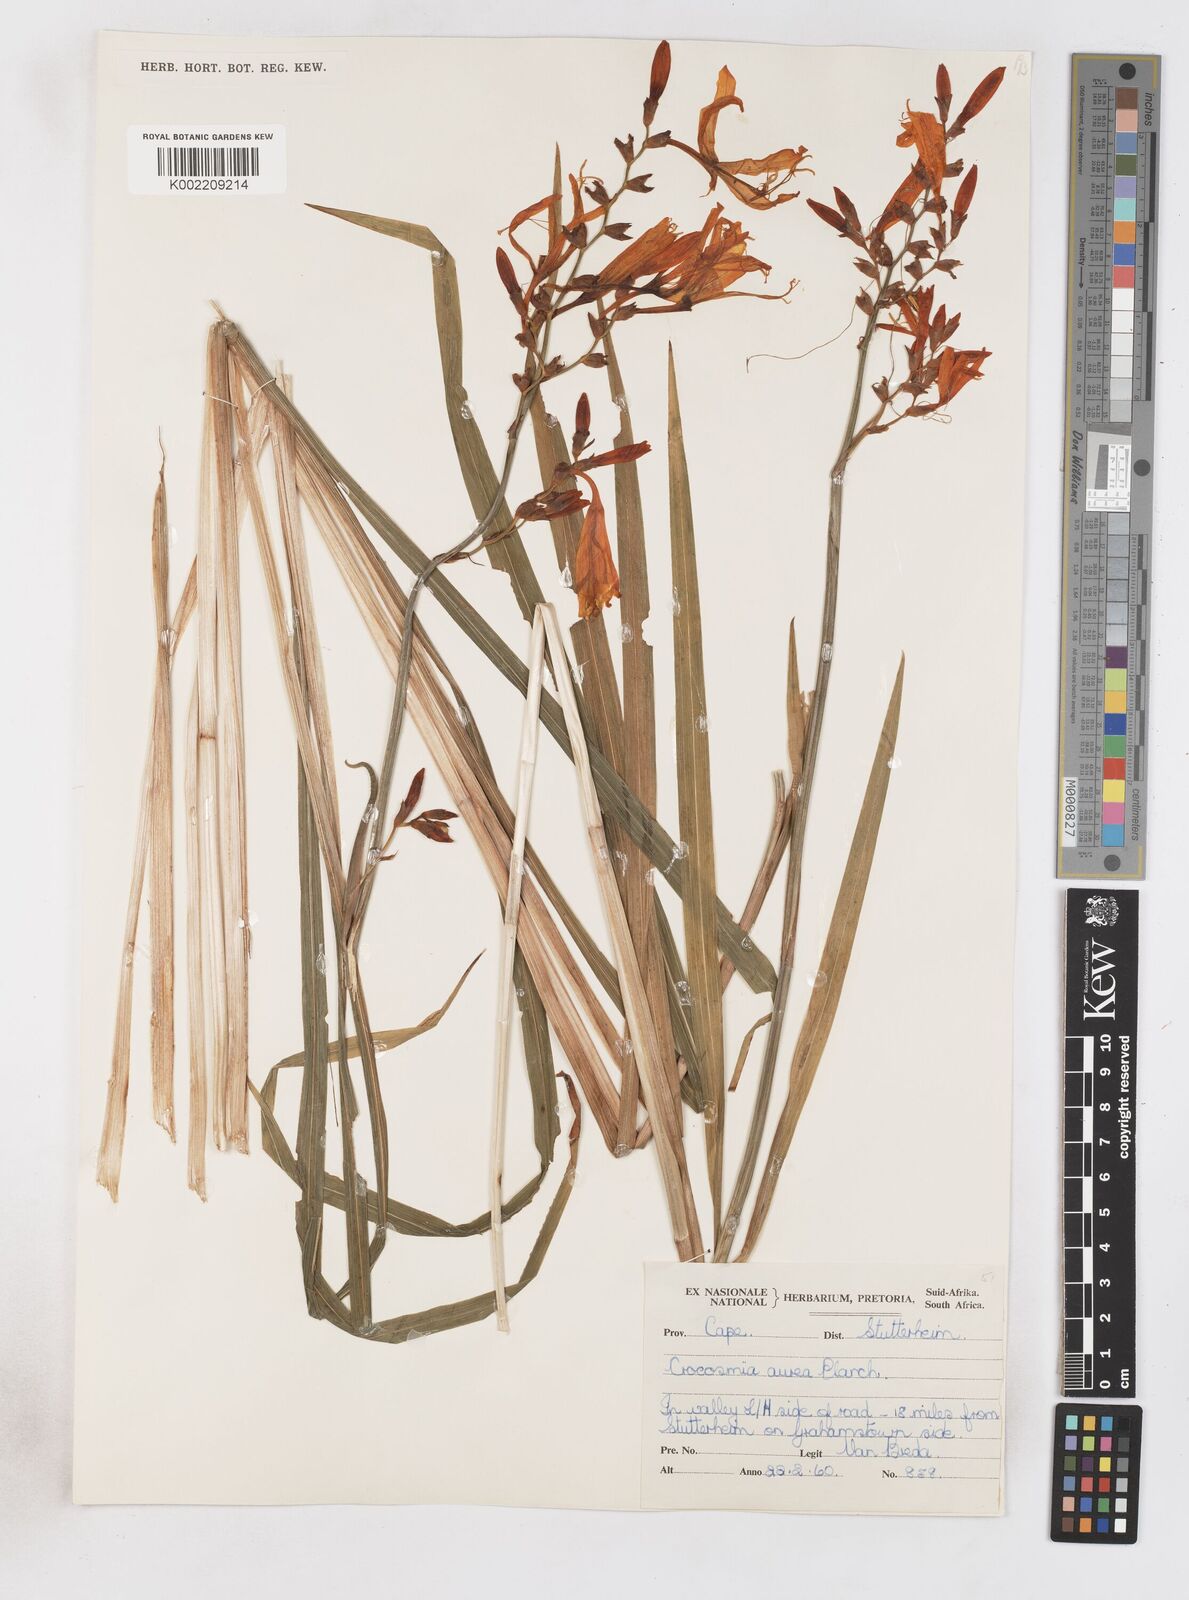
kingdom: Plantae
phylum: Tracheophyta
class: Liliopsida
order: Asparagales
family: Iridaceae
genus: Crocosmia
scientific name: Crocosmia aurea
